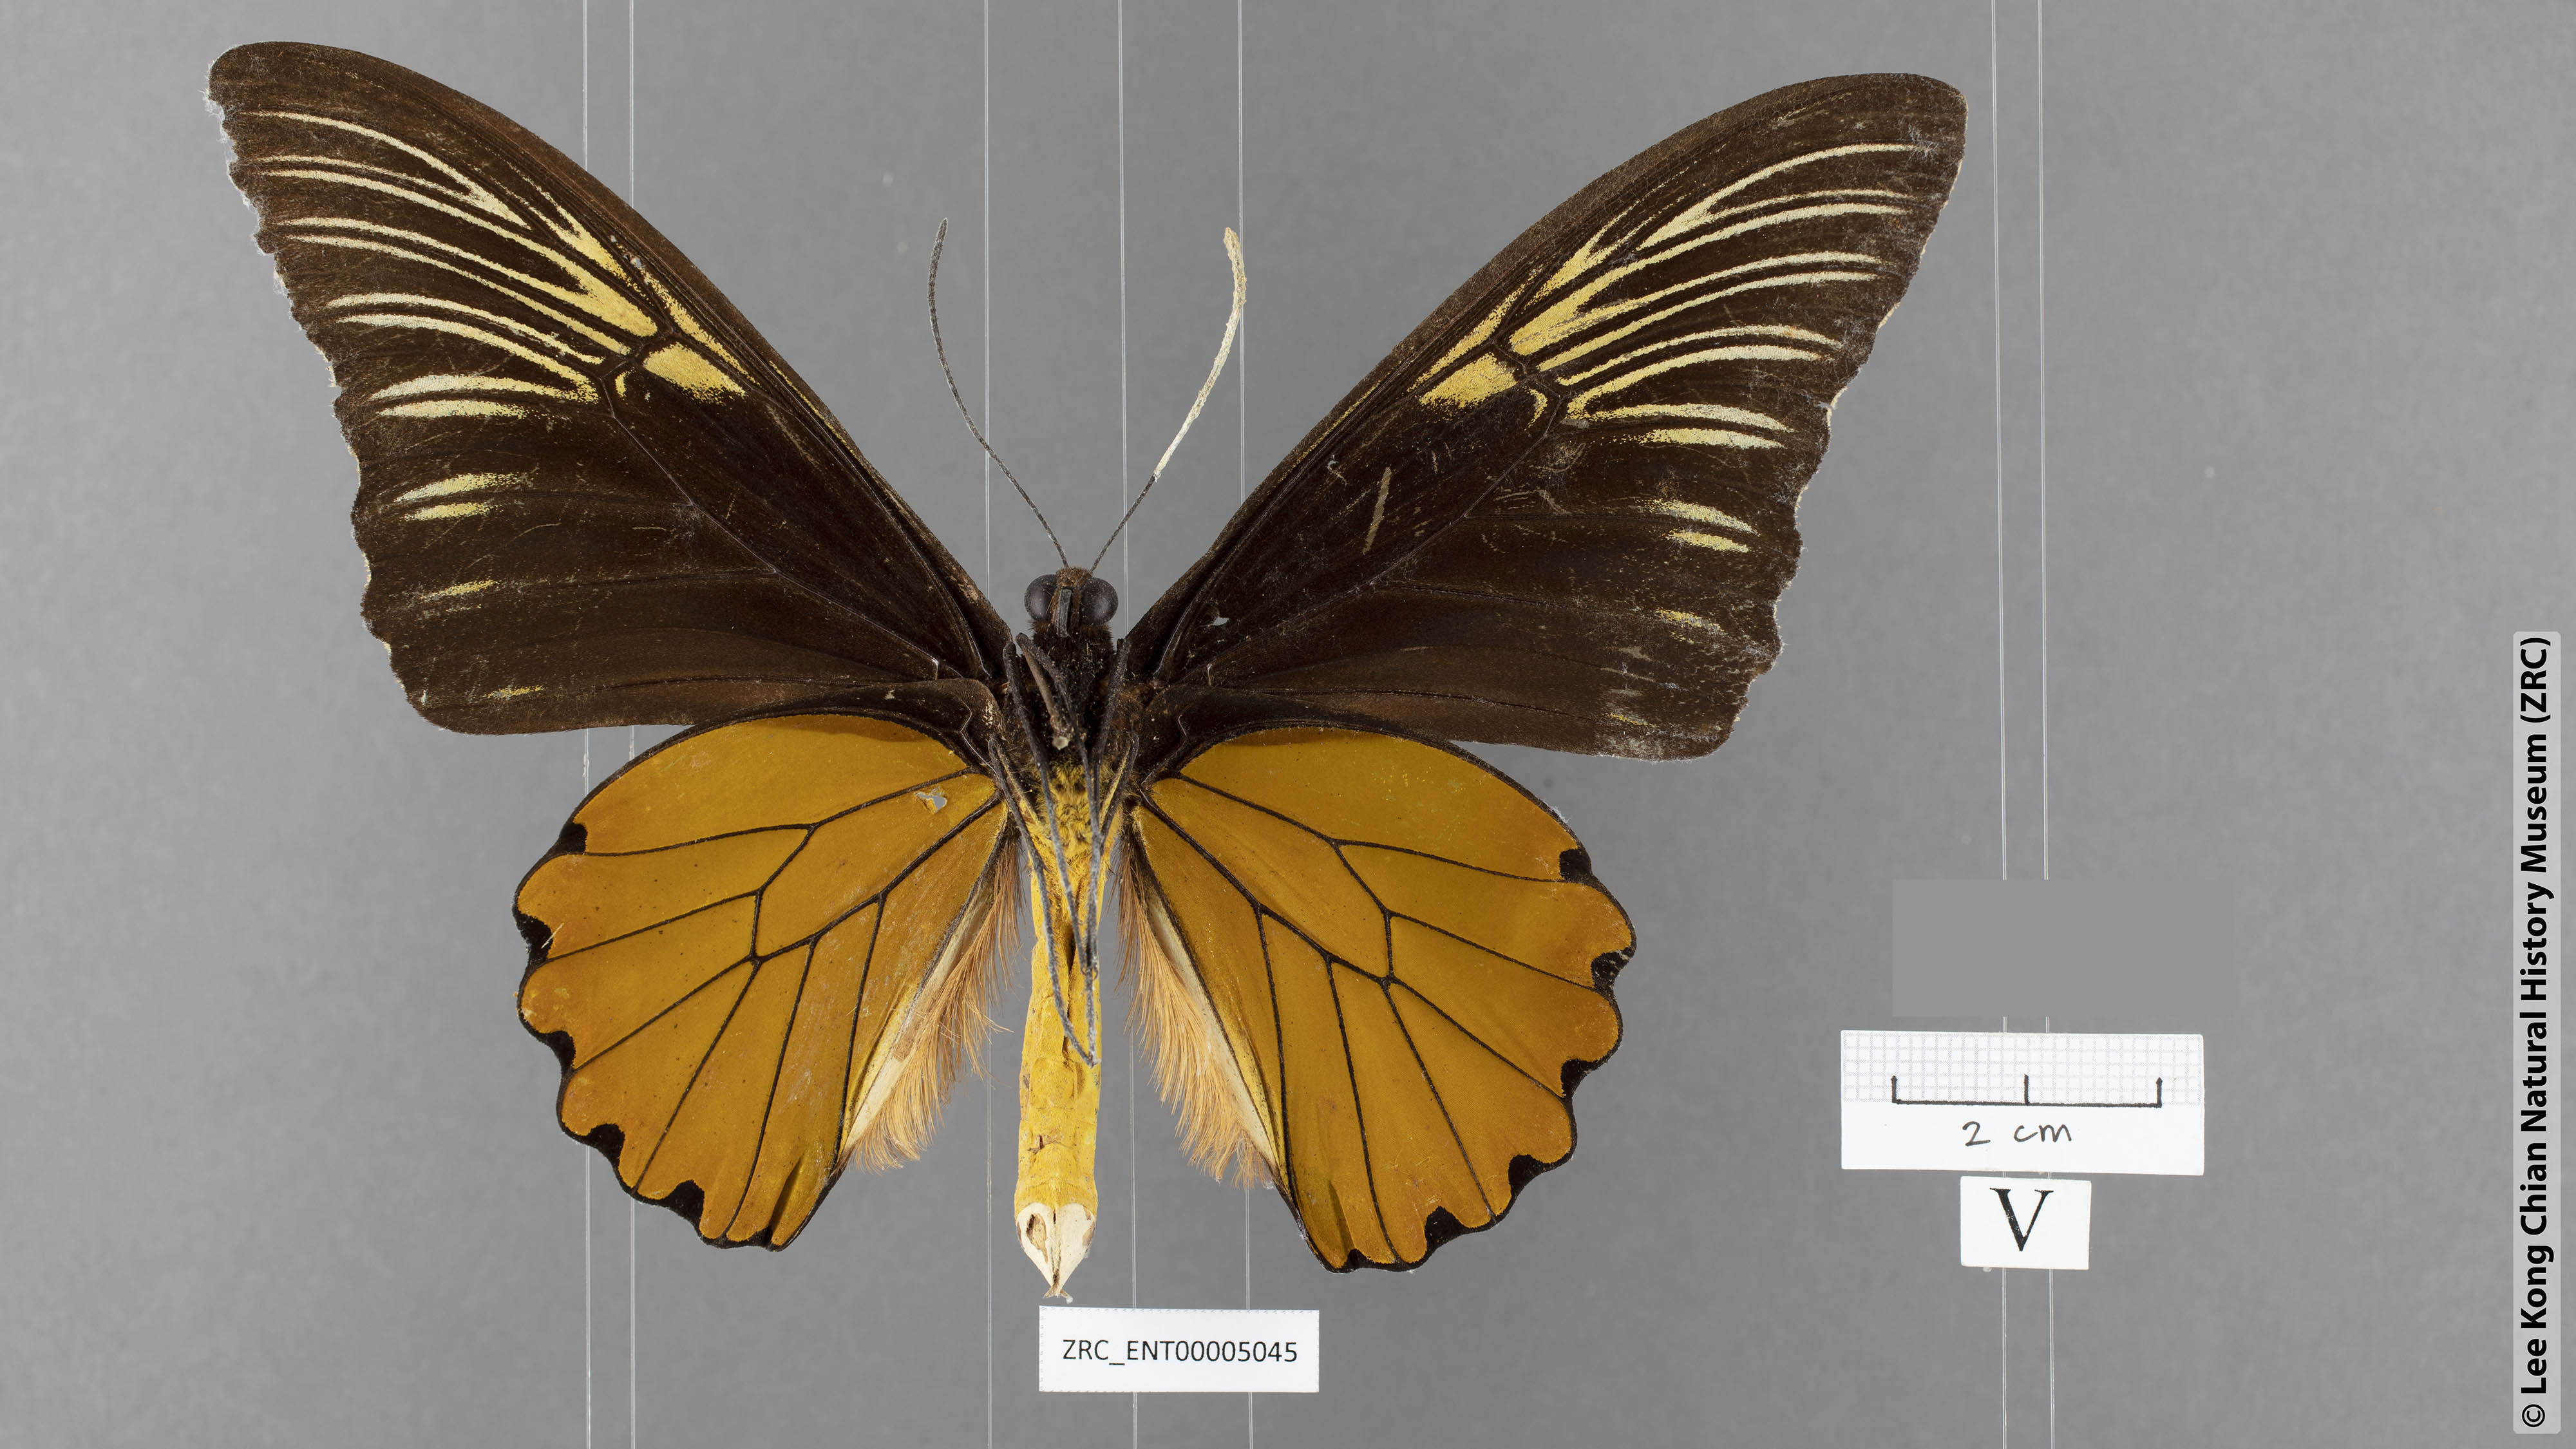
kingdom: Animalia
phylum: Arthropoda
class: Insecta
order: Lepidoptera
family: Papilionidae
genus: Troides
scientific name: Troides amphyrus
